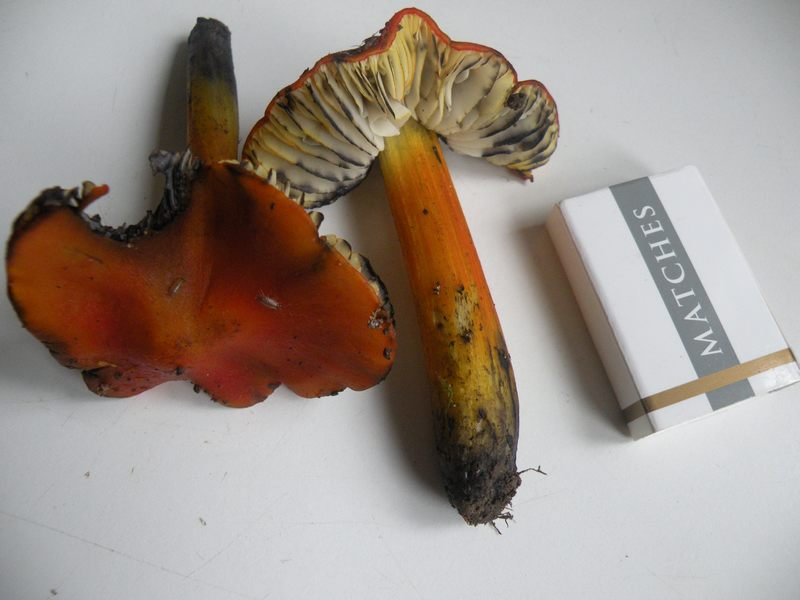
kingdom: Fungi
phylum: Basidiomycota
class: Agaricomycetes
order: Agaricales
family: Hygrophoraceae
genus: Hygrocybe
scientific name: Hygrocybe conica
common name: kegle-vokshat
